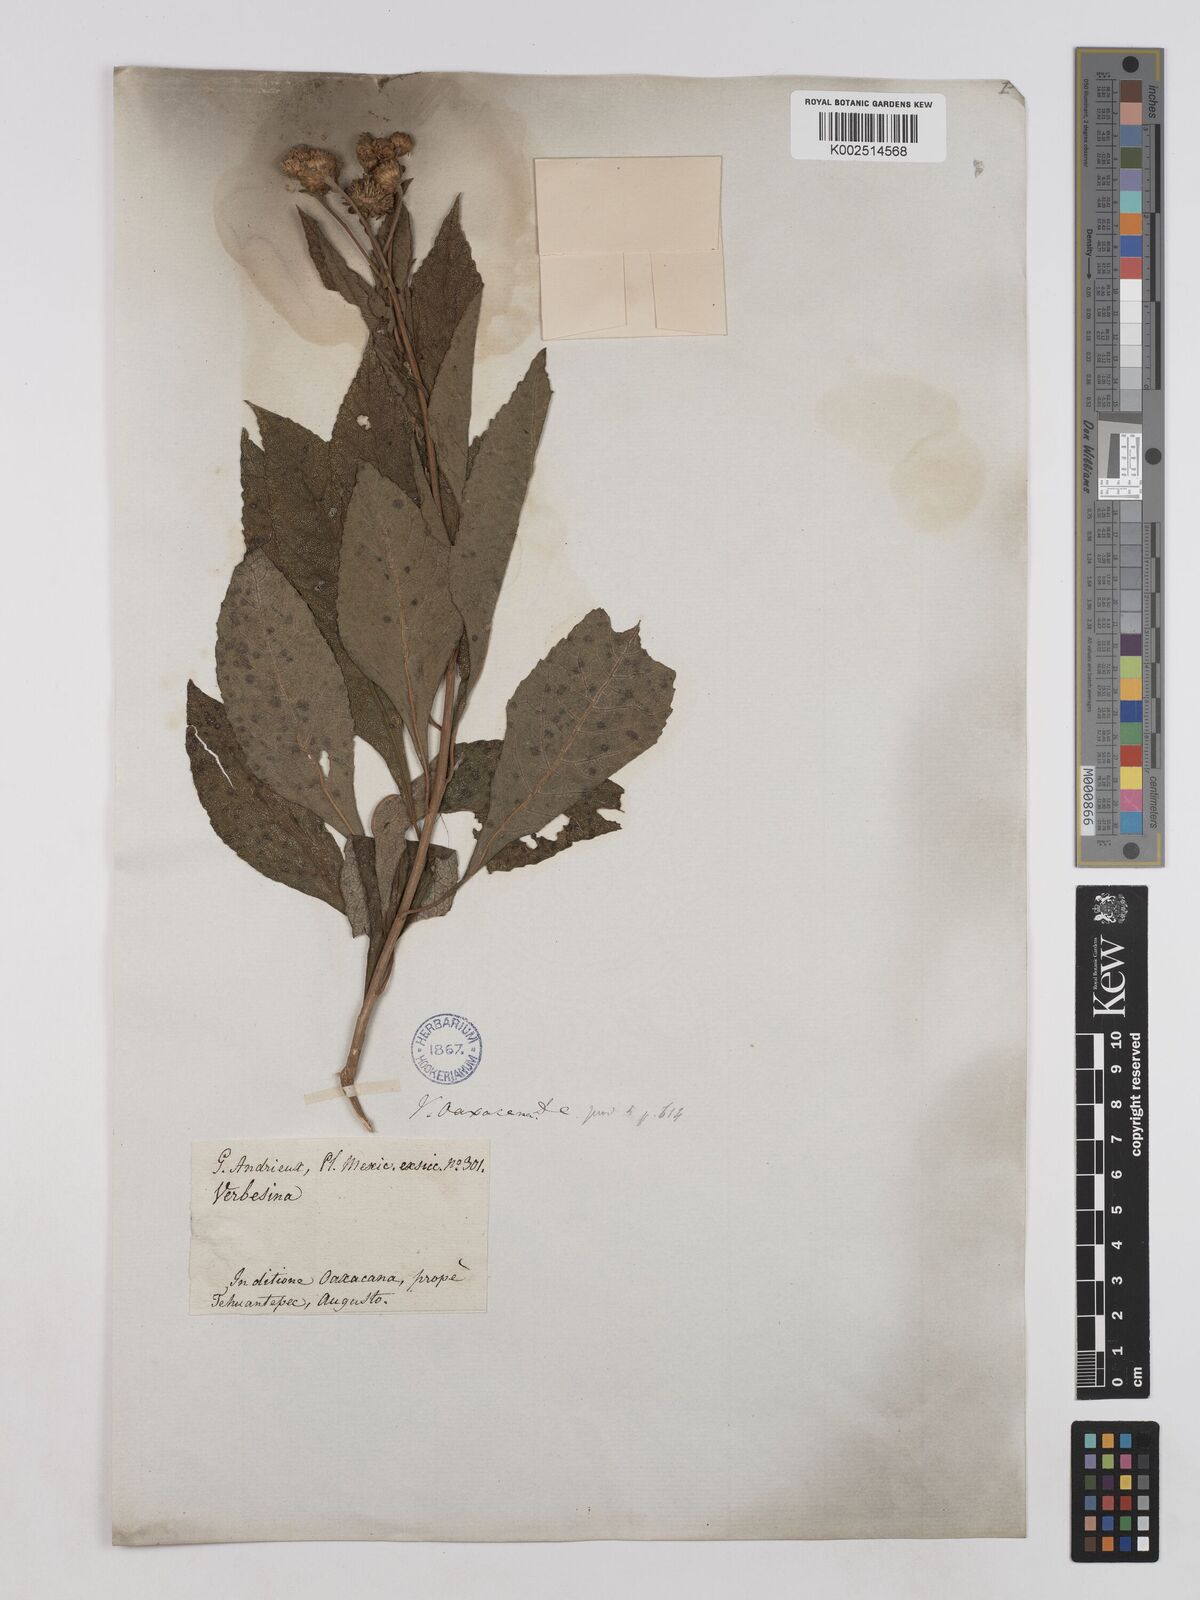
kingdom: Plantae
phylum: Tracheophyta
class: Magnoliopsida
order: Asterales
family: Asteraceae
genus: Verbesina
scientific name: Verbesina oaxacana
